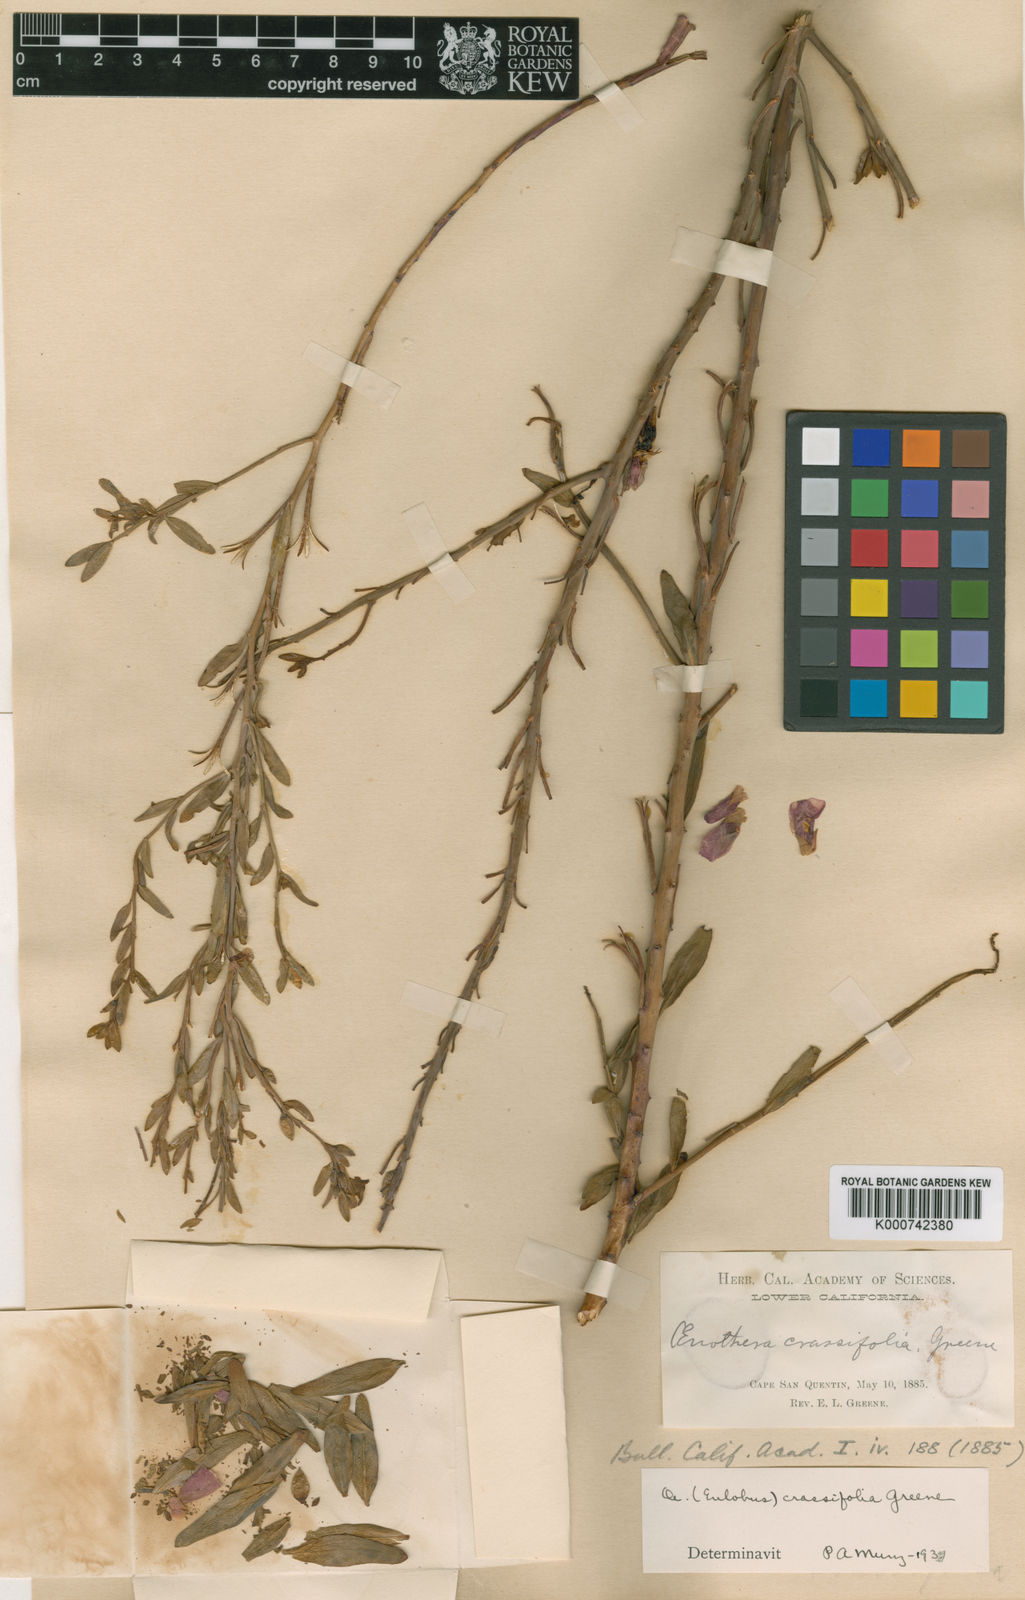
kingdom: Plantae
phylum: Tracheophyta
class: Magnoliopsida
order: Myrtales
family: Onagraceae
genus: Eulobus
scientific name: Eulobus crassifolius
